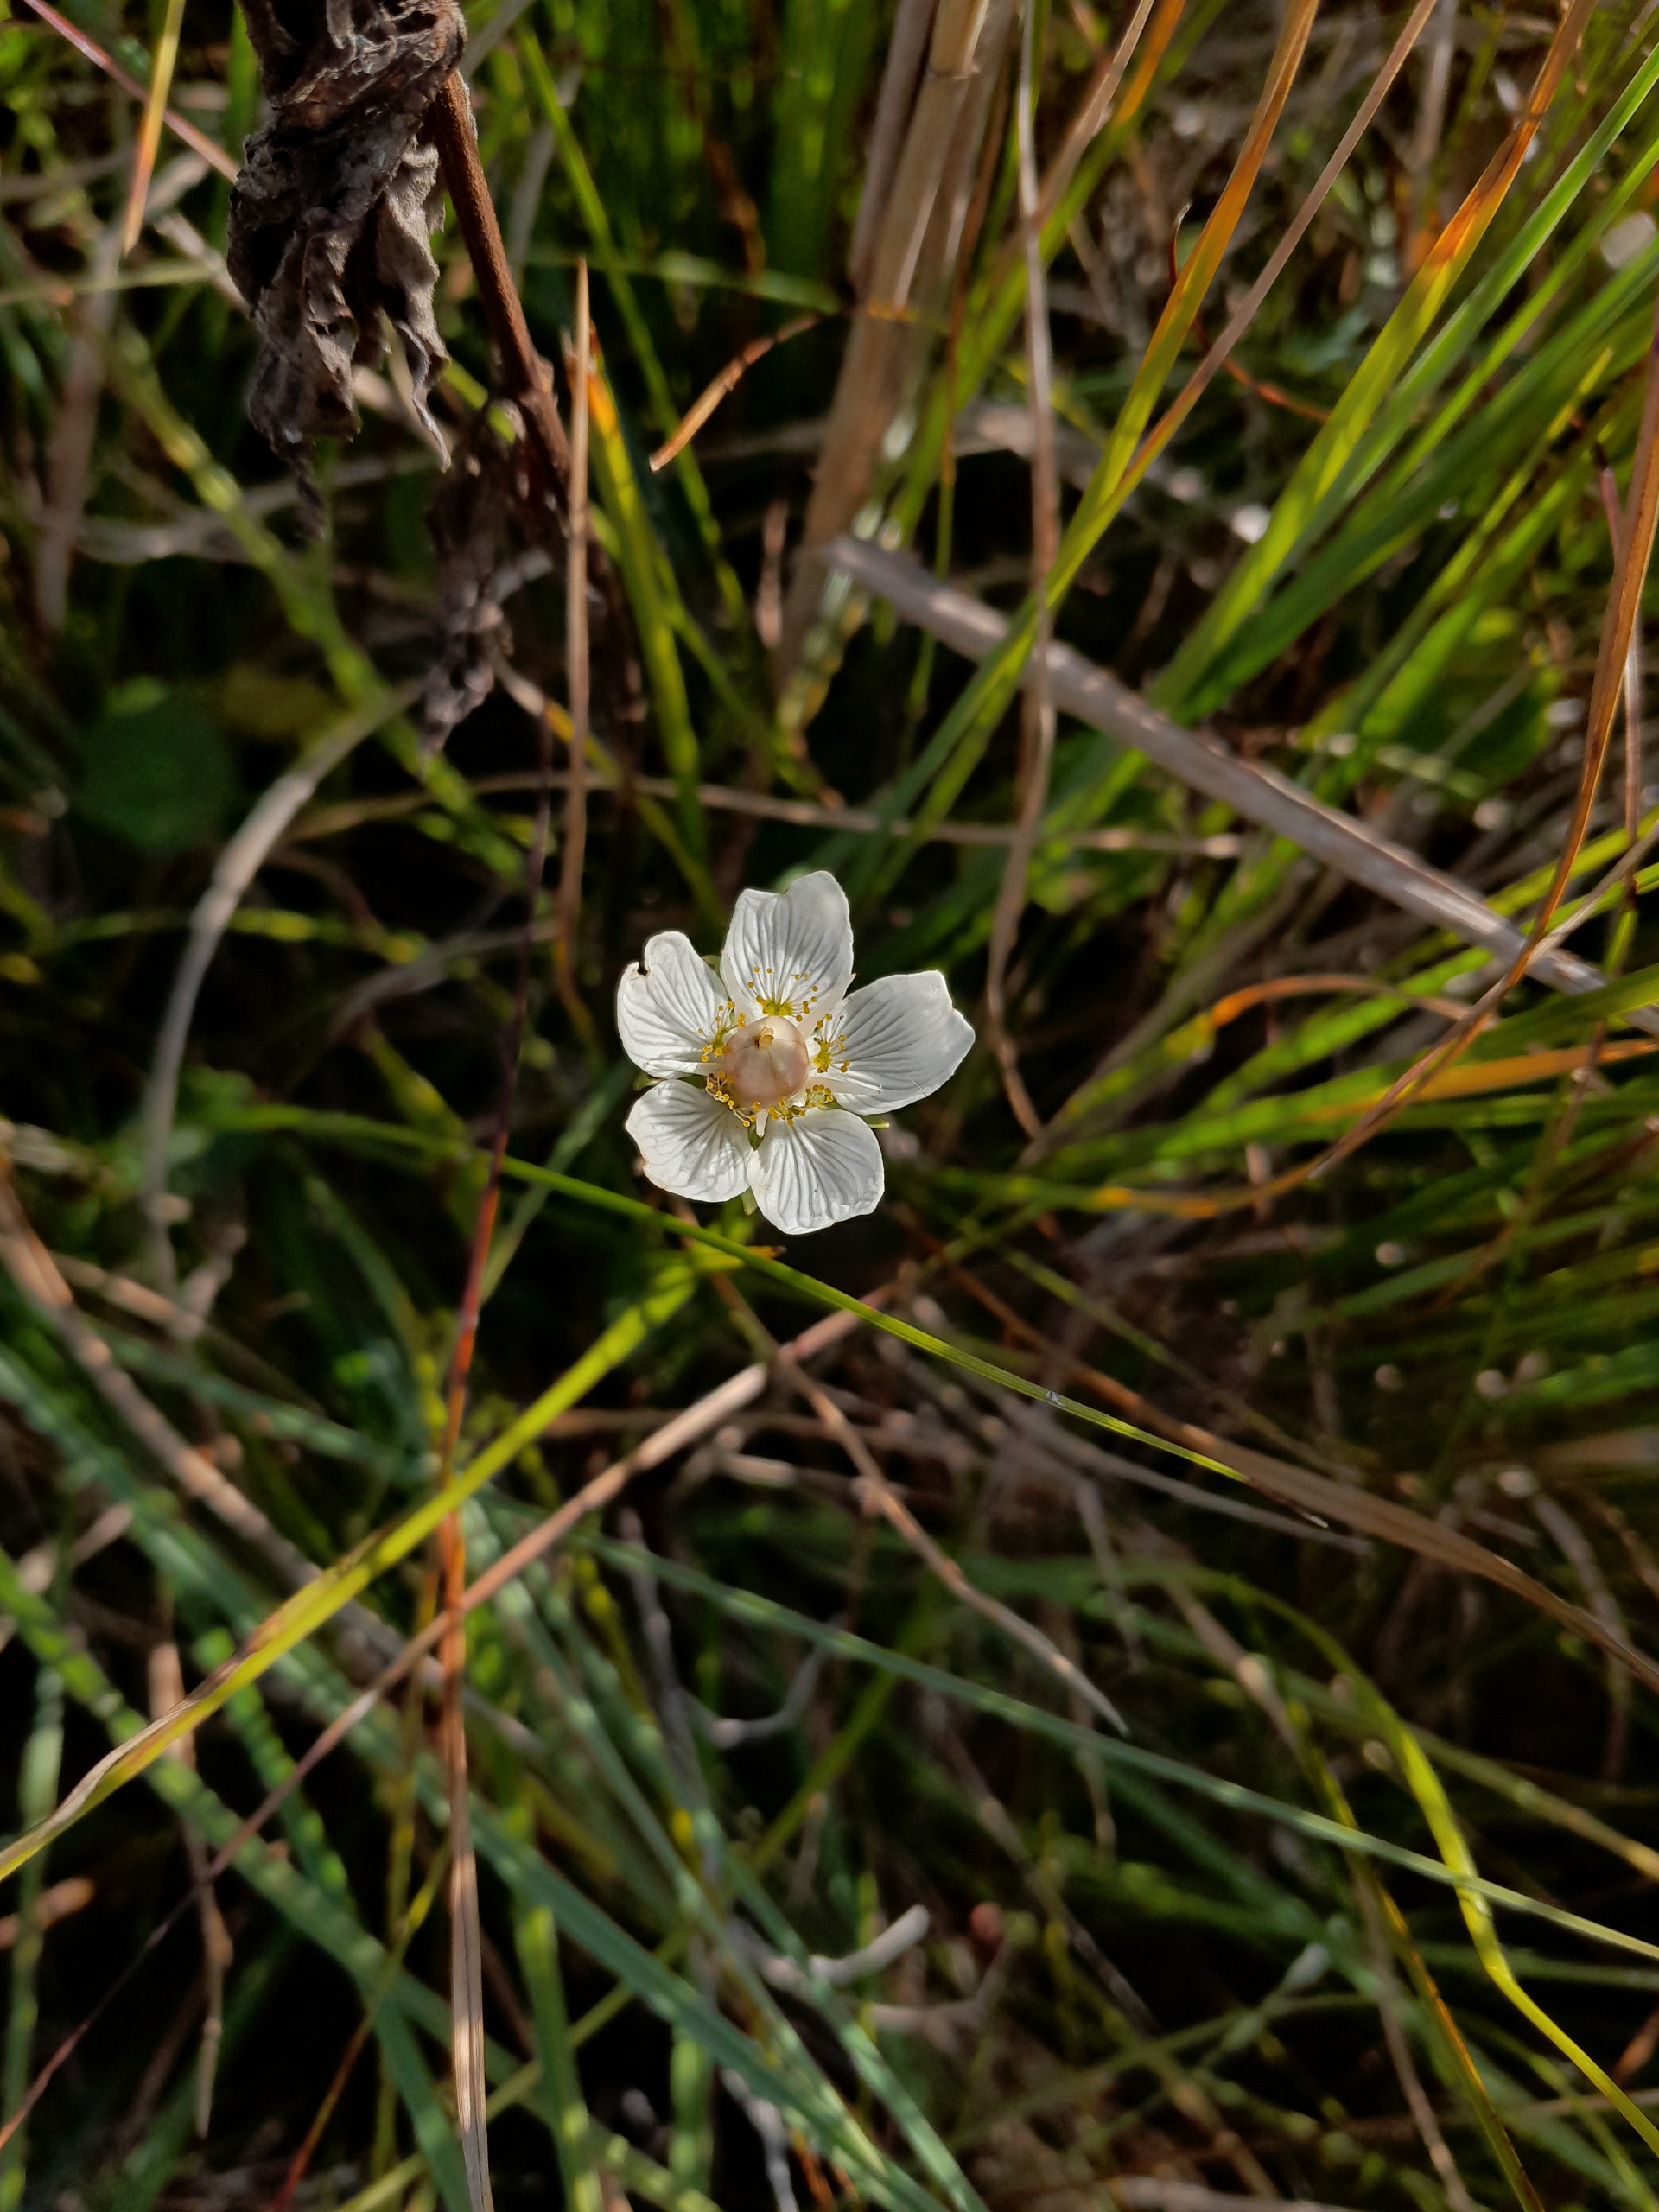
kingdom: Plantae
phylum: Tracheophyta
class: Magnoliopsida
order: Celastrales
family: Parnassiaceae
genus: Parnassia
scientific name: Parnassia palustris
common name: Leverurt
